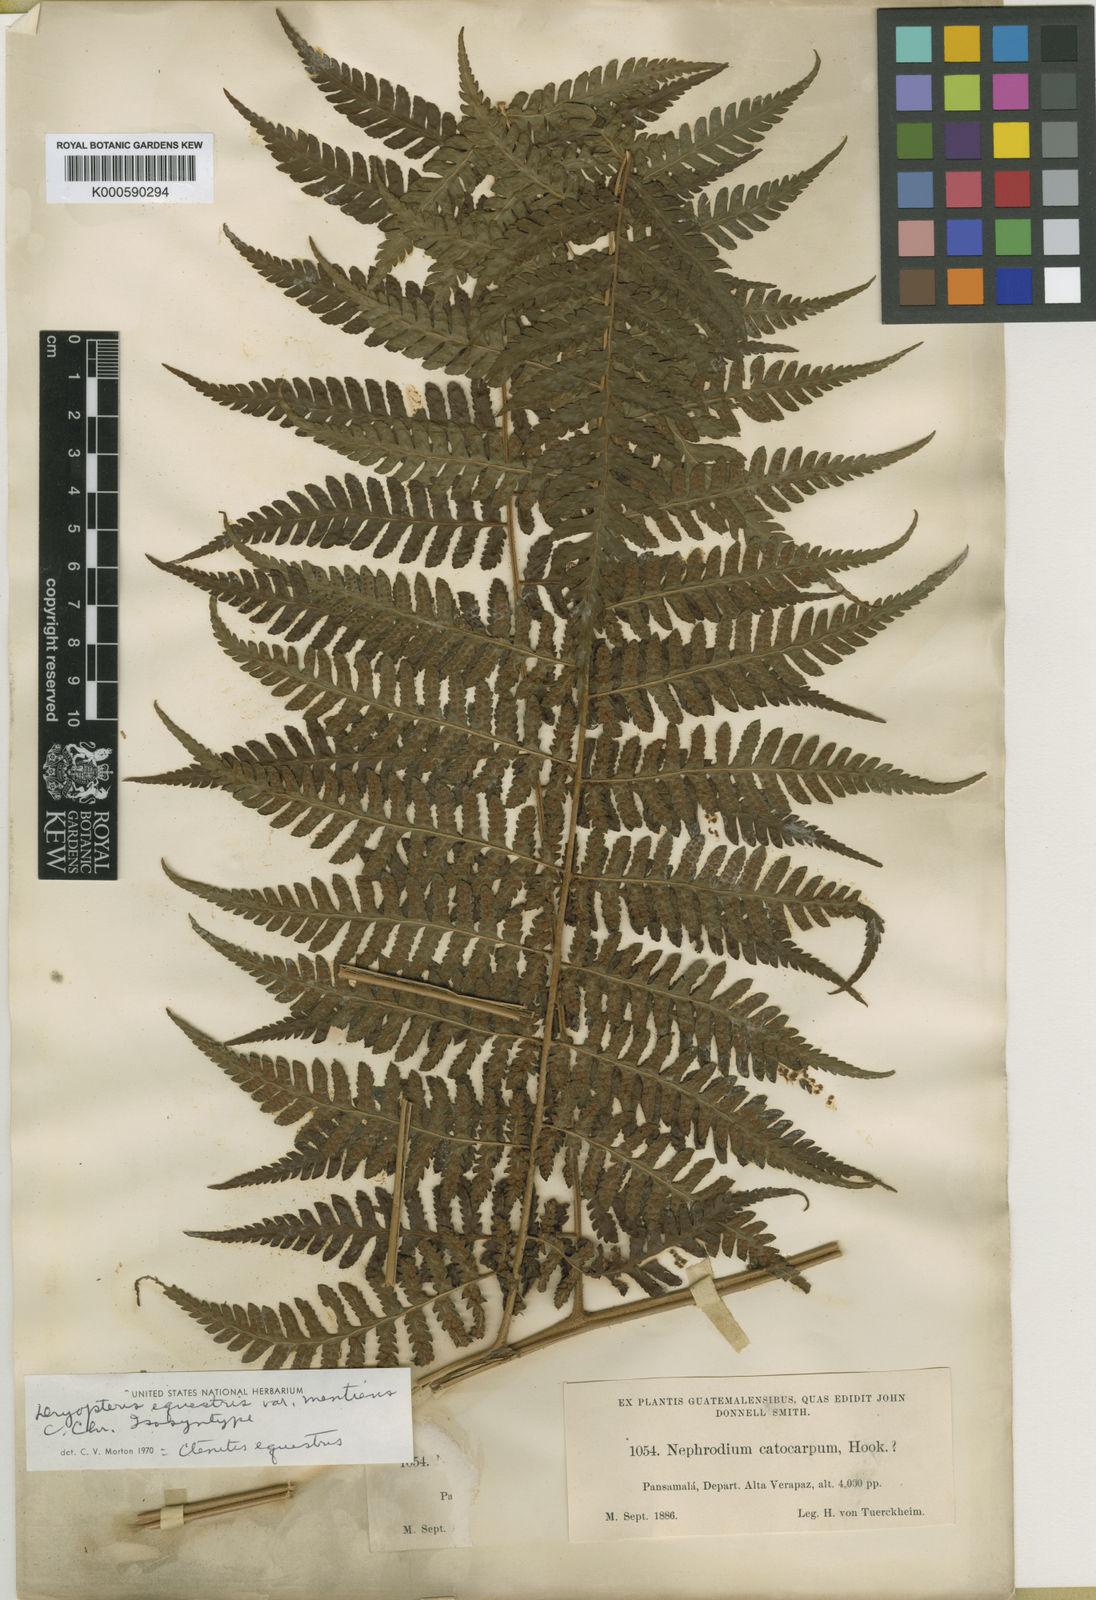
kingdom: Plantae
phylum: Tracheophyta
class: Polypodiopsida
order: Polypodiales
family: Dryopteridaceae
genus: Ctenitis
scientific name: Ctenitis equestris
